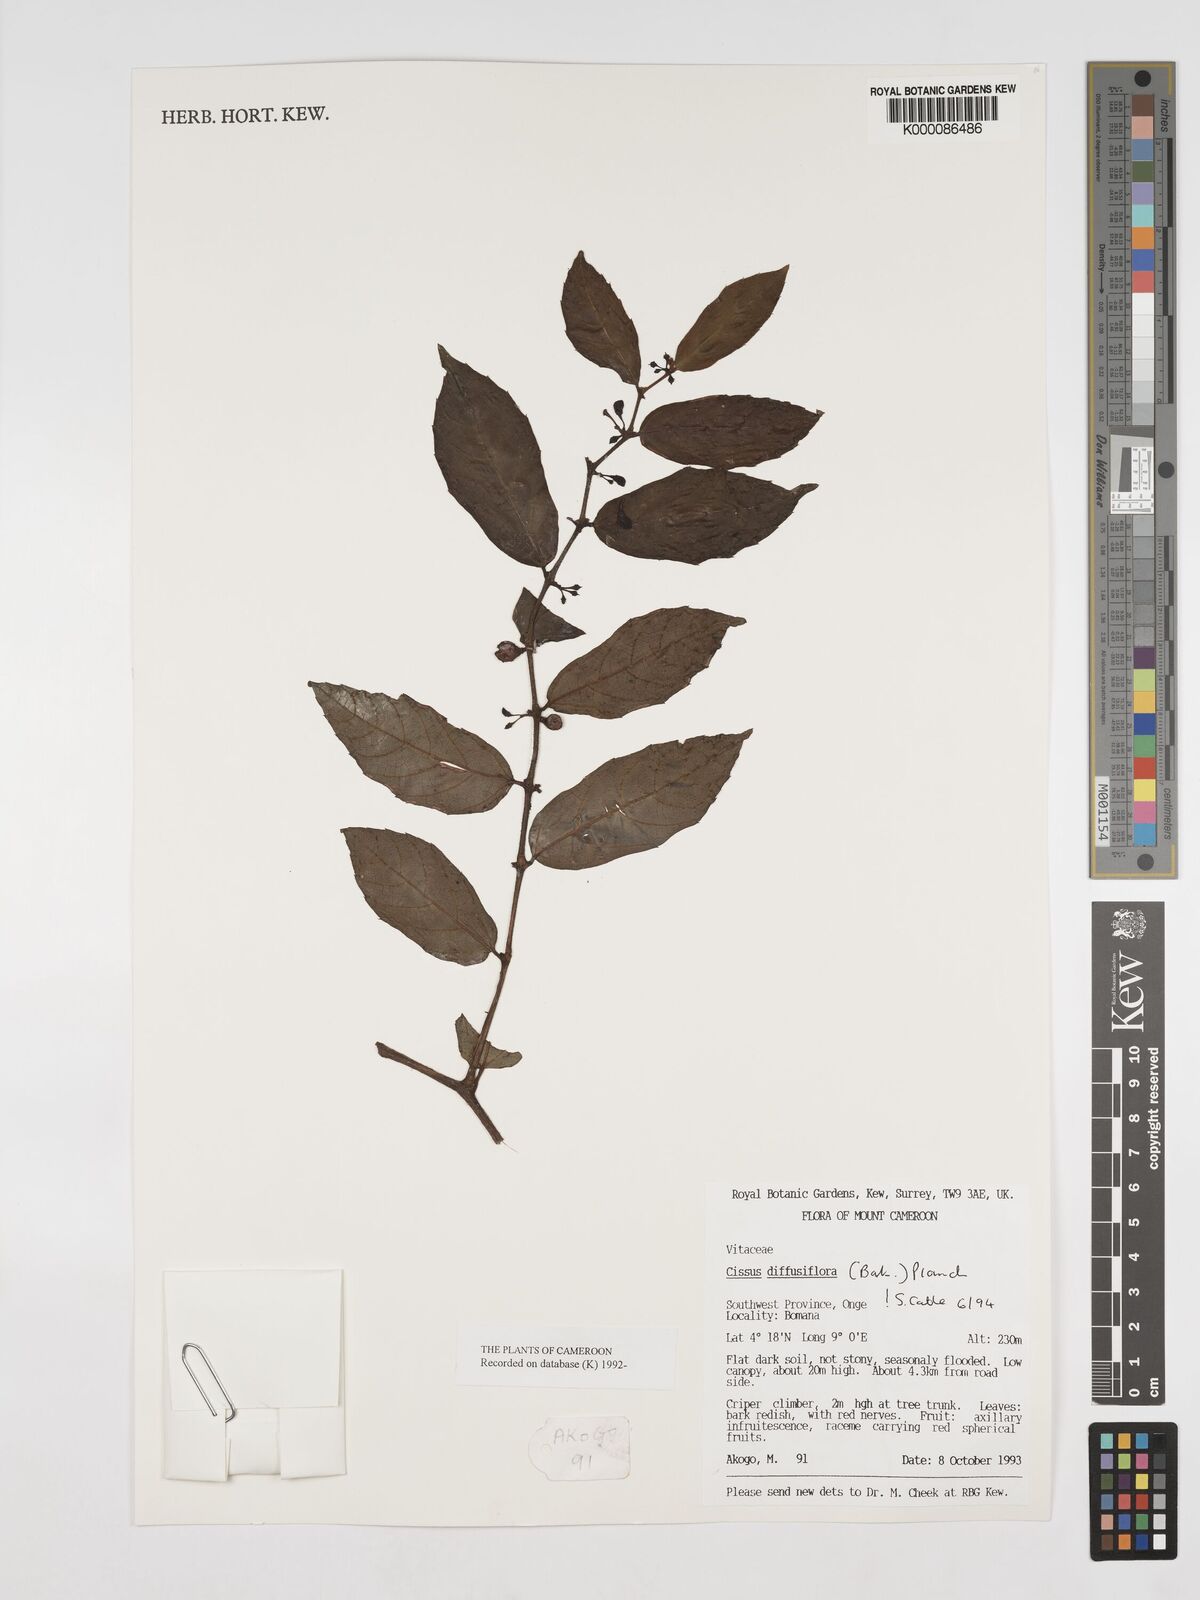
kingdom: Plantae
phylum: Tracheophyta
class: Magnoliopsida
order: Vitales
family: Vitaceae
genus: Cissus
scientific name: Cissus diffusiflora
